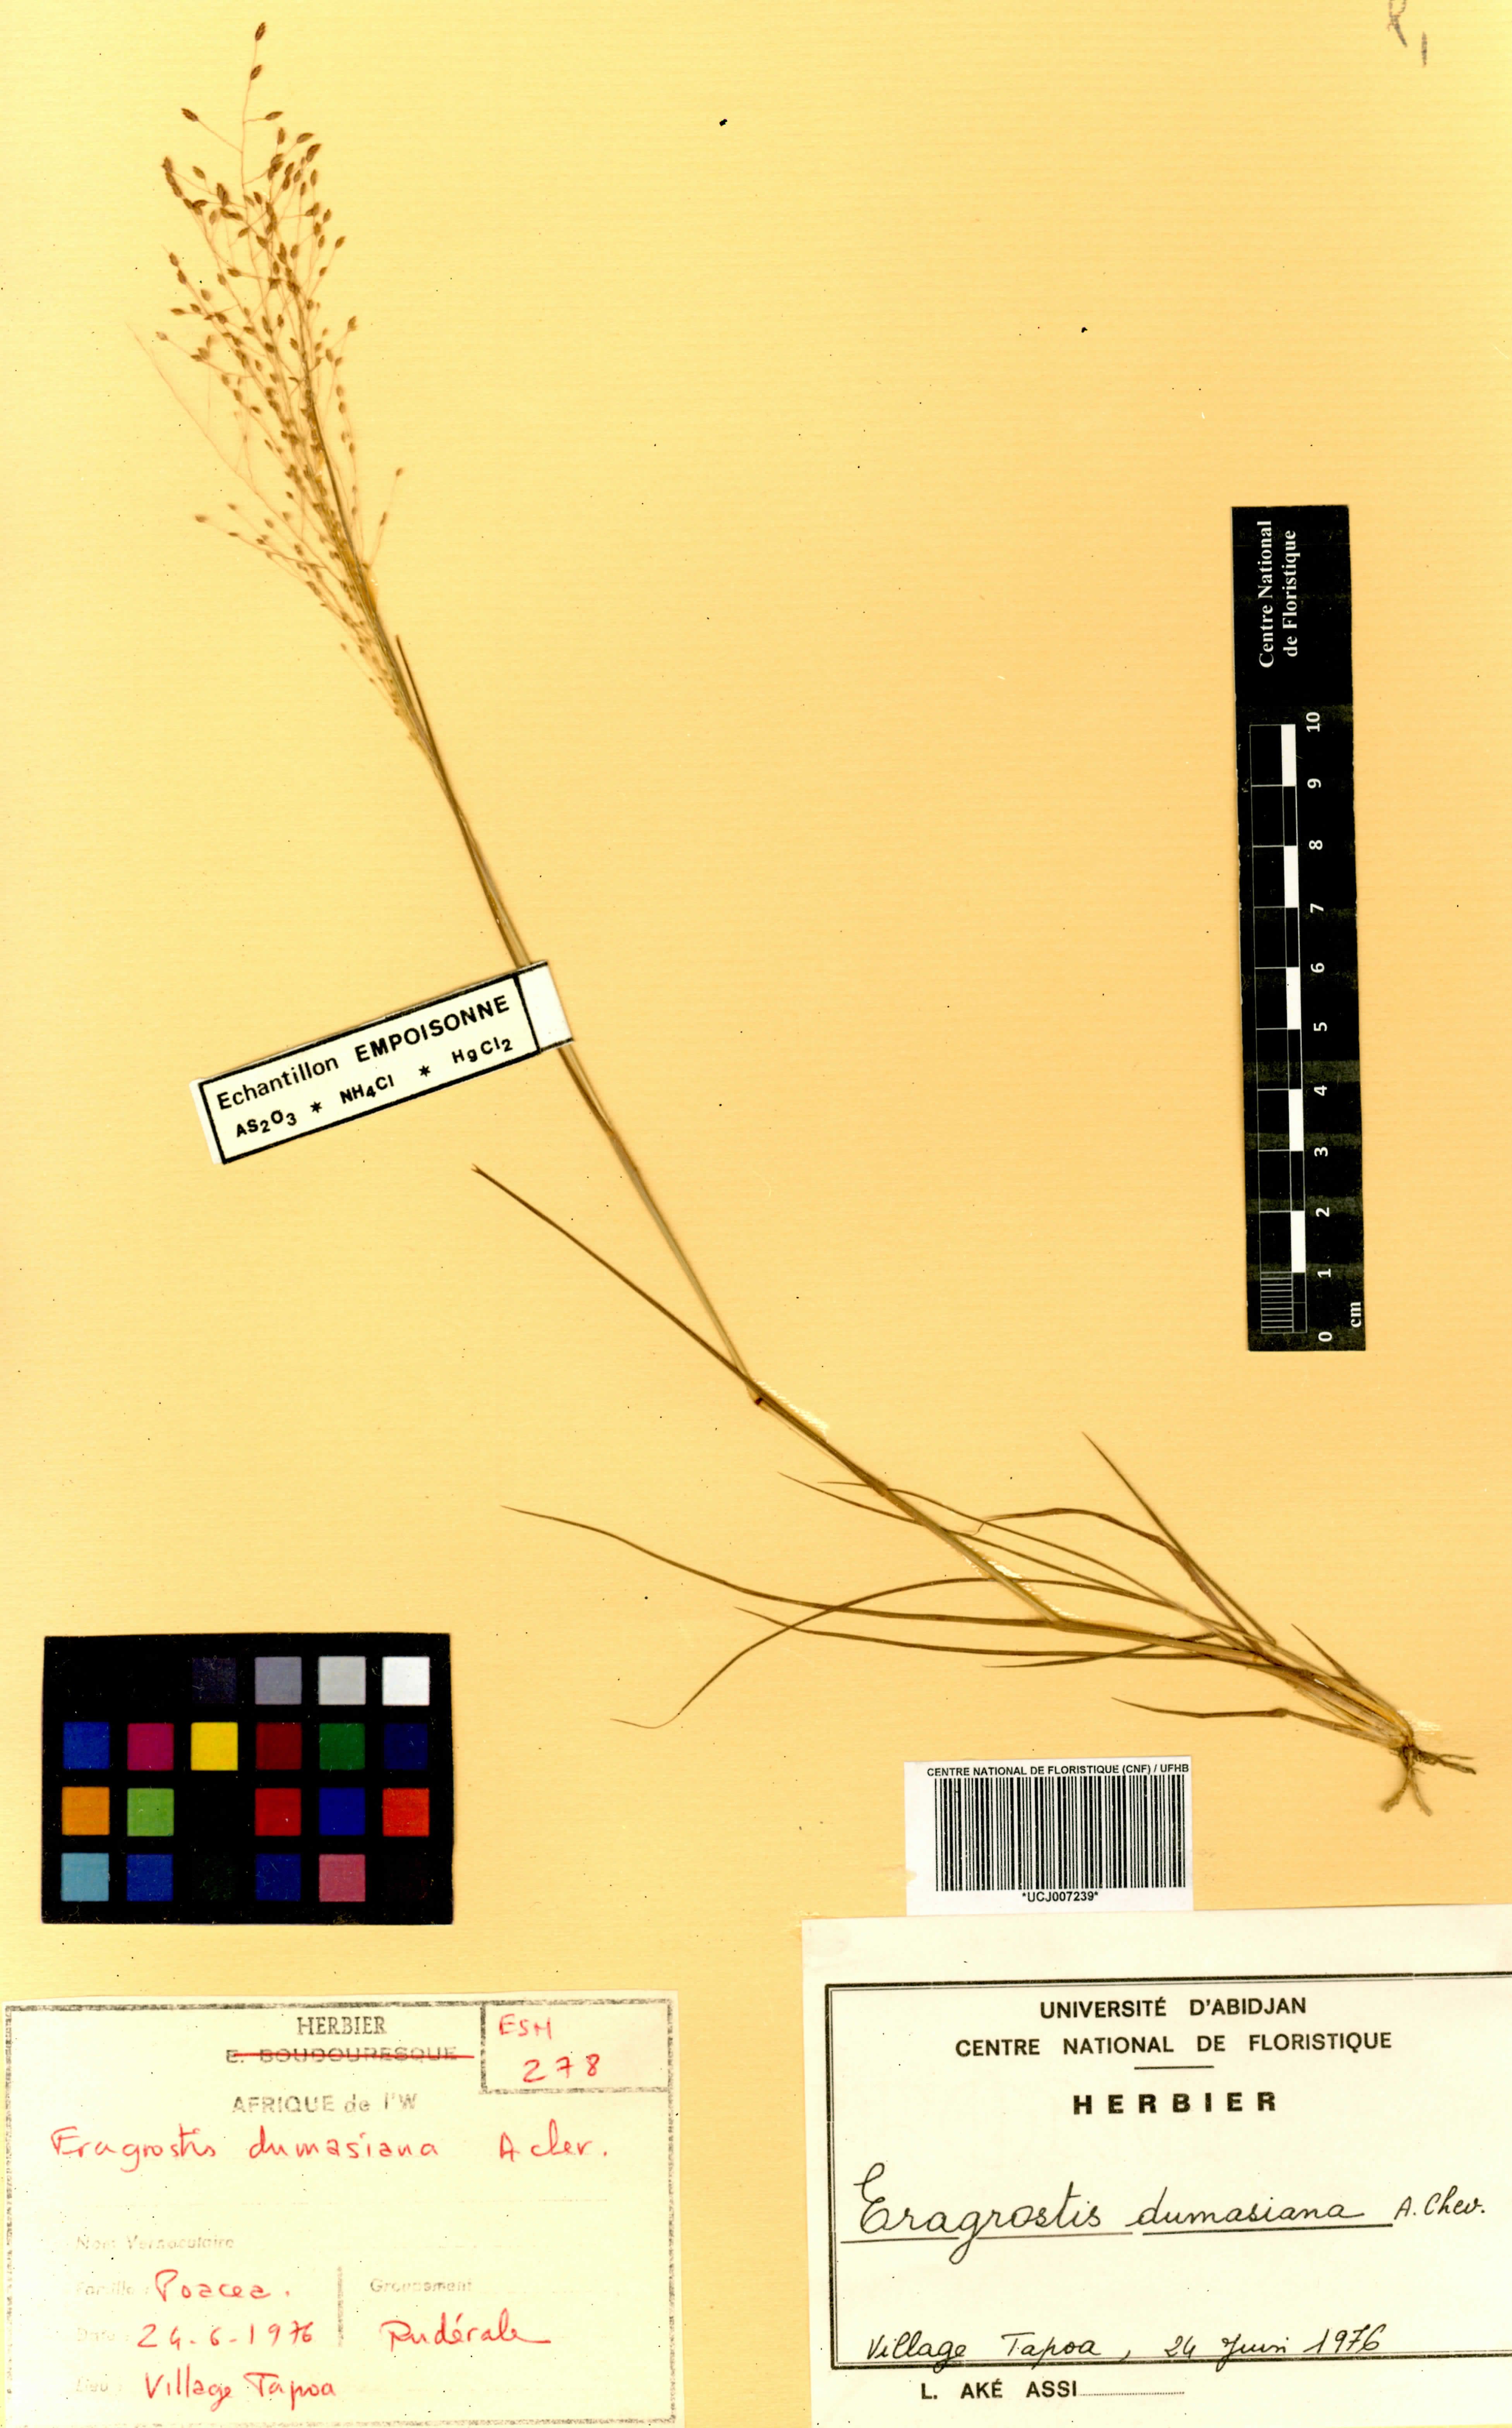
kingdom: Plantae
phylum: Tracheophyta
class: Liliopsida
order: Poales
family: Poaceae
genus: Eragrostis
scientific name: Eragrostis gangetica
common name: Slimflower lovegrass
